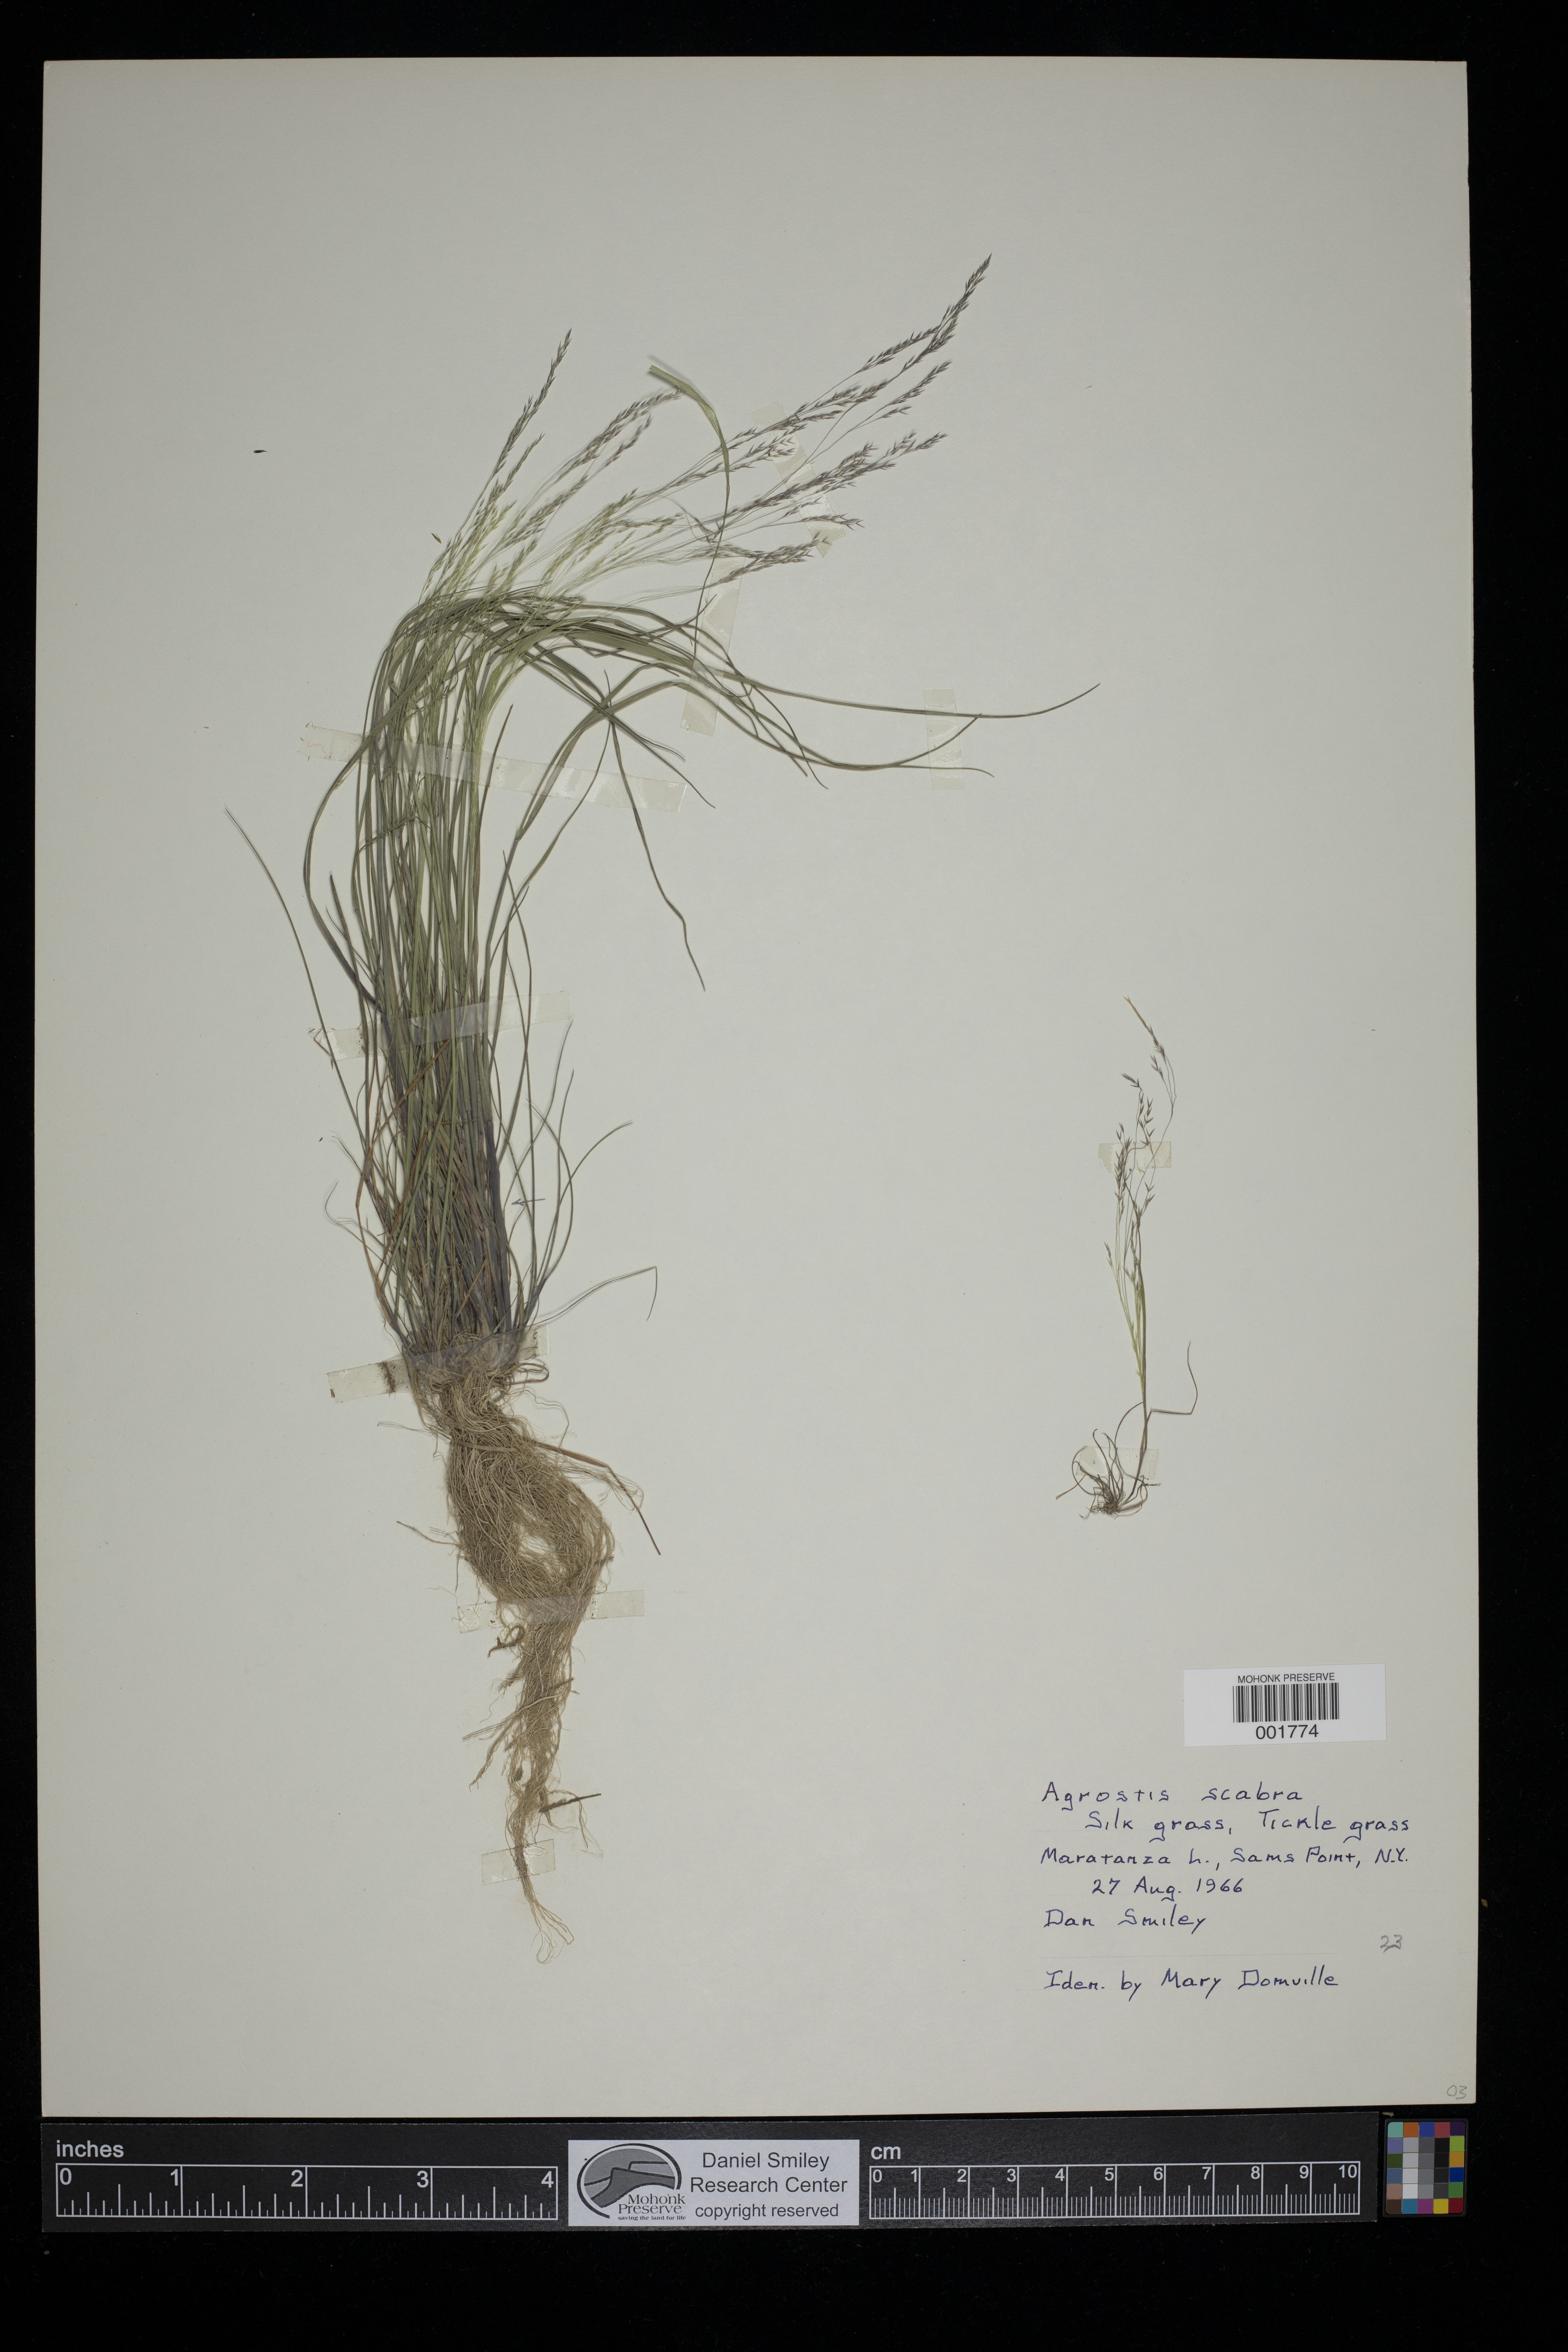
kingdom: Plantae
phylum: Tracheophyta
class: Liliopsida
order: Poales
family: Poaceae
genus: Agrostis
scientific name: Agrostis scabra
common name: Rough bent
